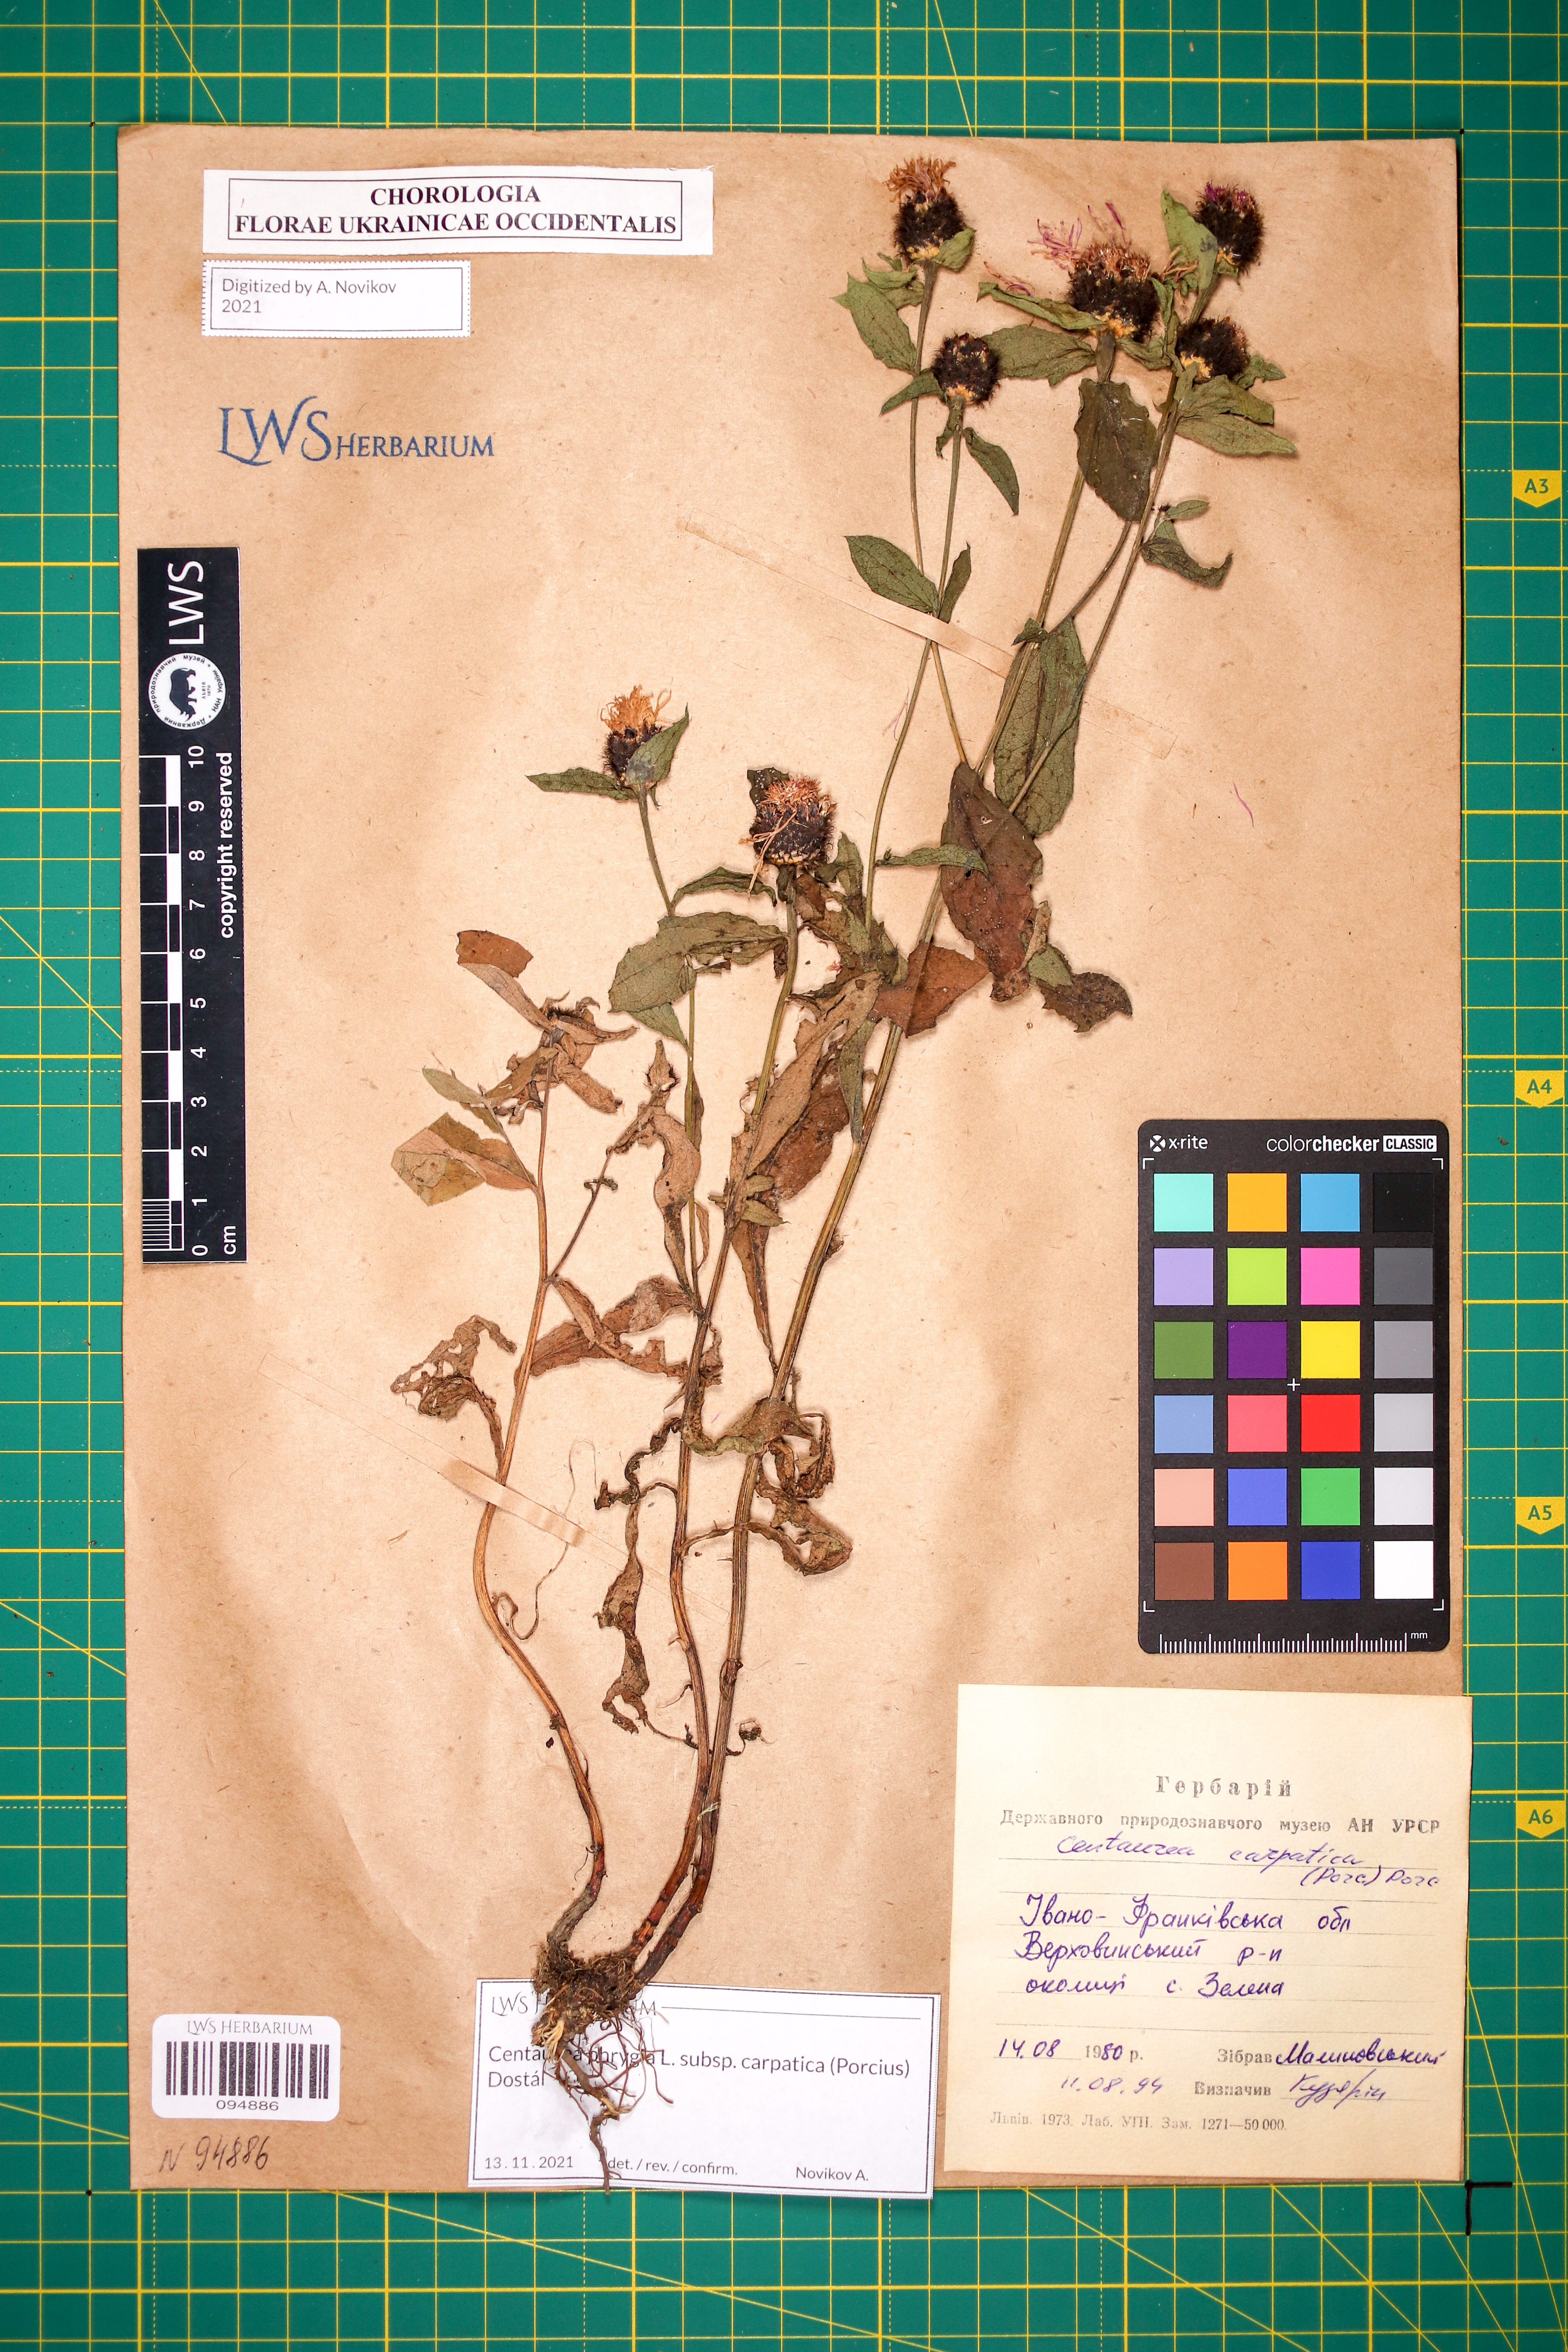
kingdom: Plantae
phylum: Tracheophyta
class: Magnoliopsida
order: Asterales
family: Asteraceae
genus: Centaurea
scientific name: Centaurea phrygia
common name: Wig knapweed
